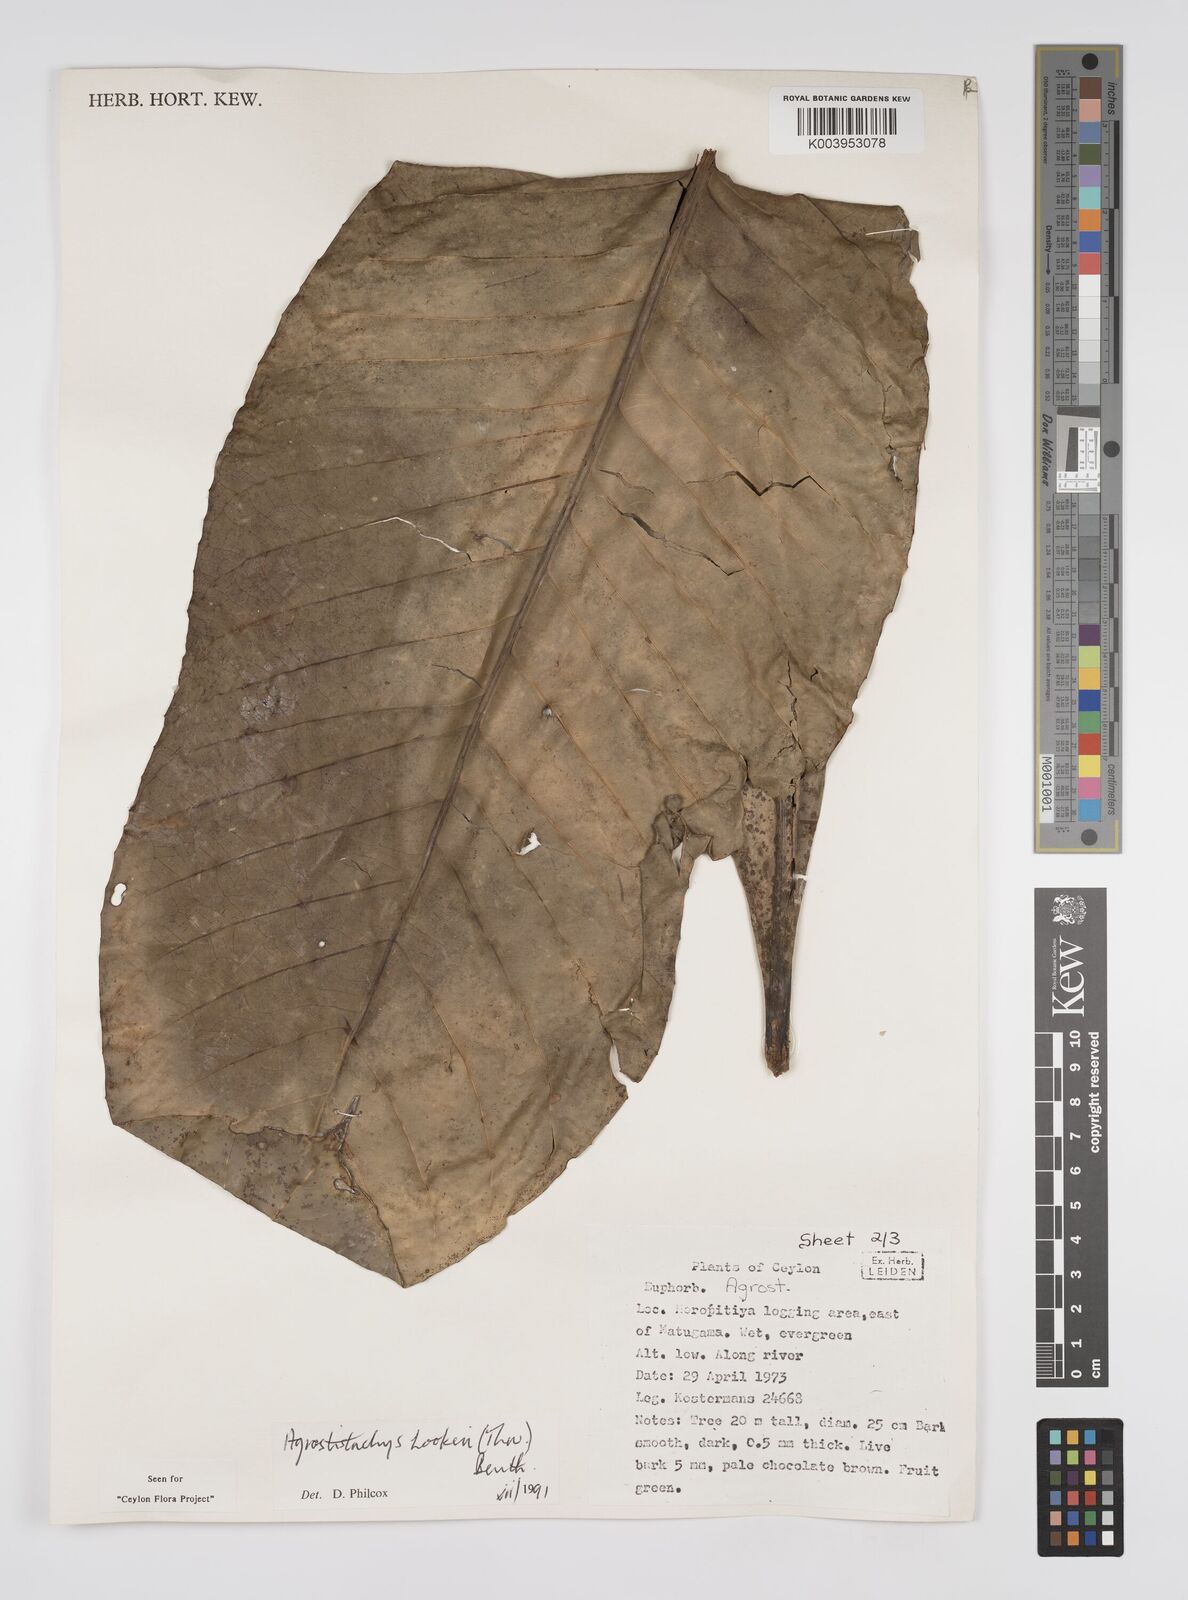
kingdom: Plantae
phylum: Tracheophyta
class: Magnoliopsida
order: Malpighiales
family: Euphorbiaceae
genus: Agrostistachys
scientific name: Agrostistachys hookeri
